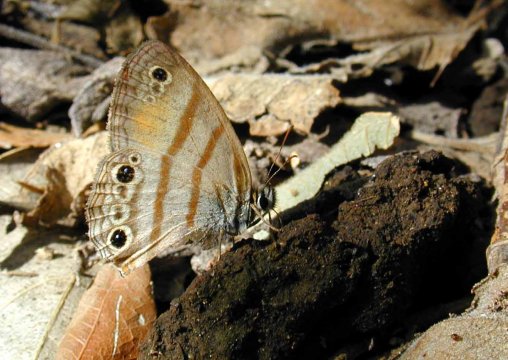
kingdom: Animalia
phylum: Arthropoda
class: Insecta
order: Lepidoptera
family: Nymphalidae
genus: Argyreuptychia
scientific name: Argyreuptychia palladia
